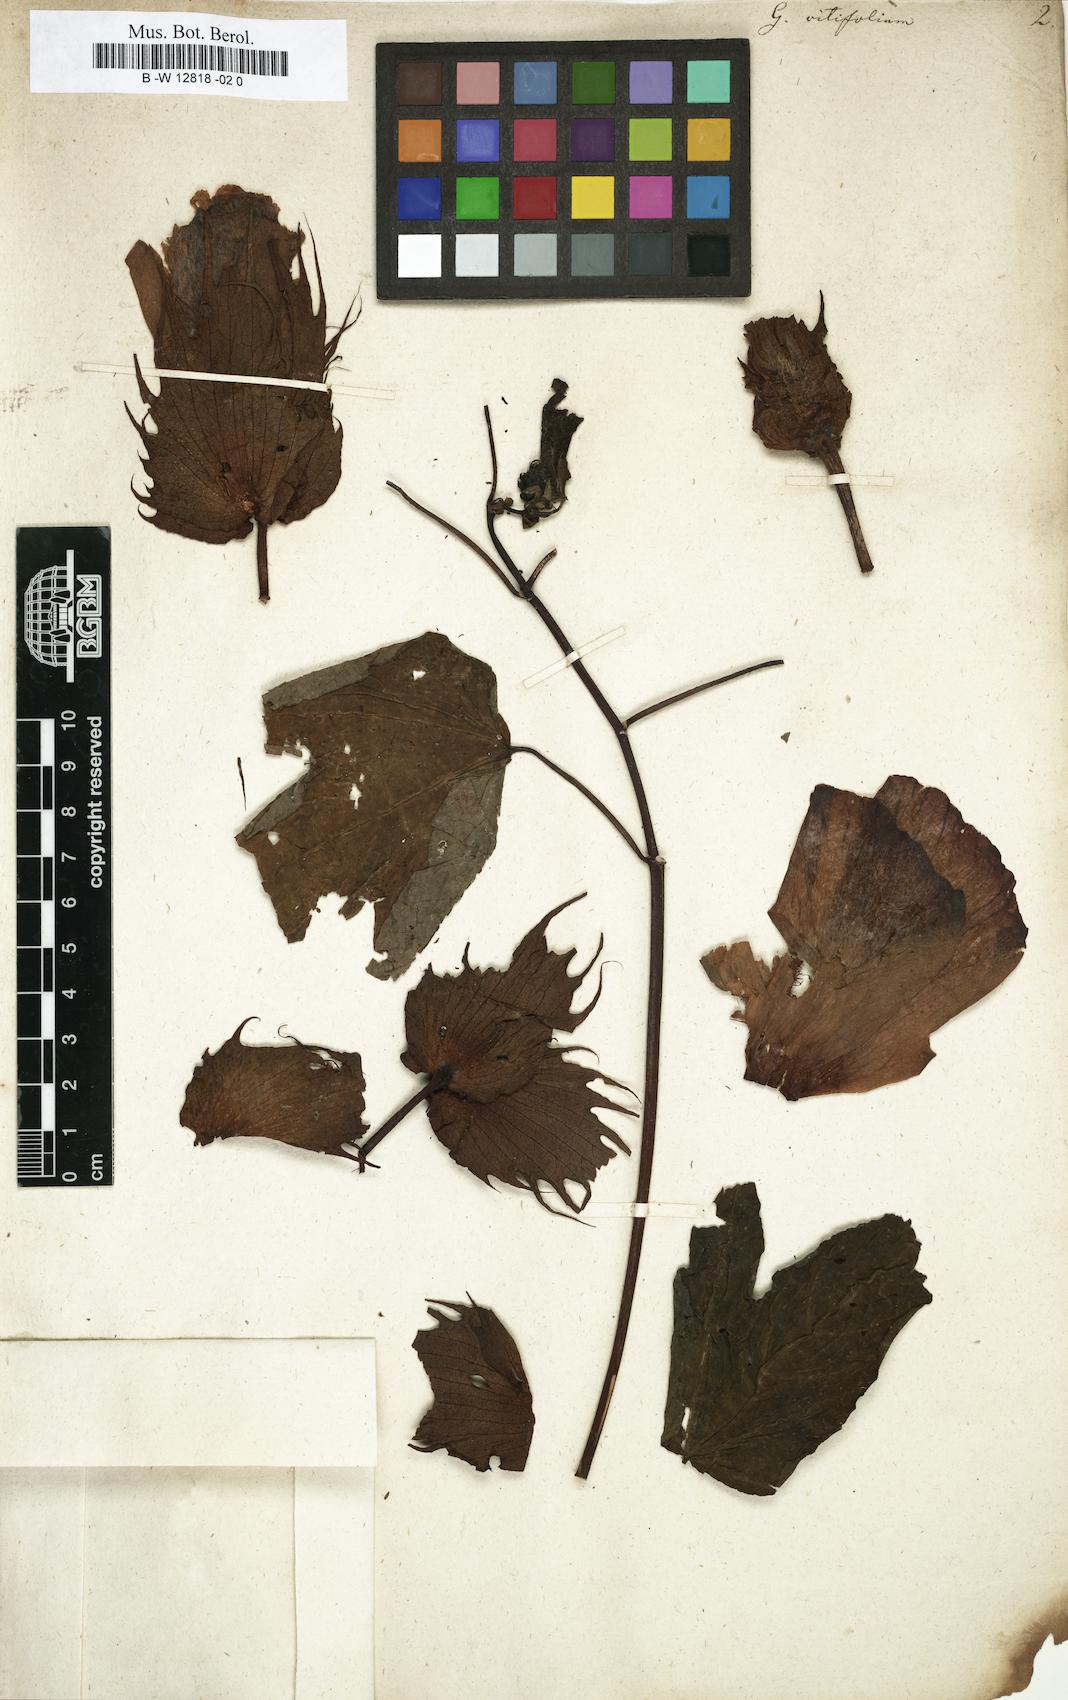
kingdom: Plantae
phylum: Tracheophyta
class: Magnoliopsida
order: Malvales
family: Malvaceae
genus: Gossypium
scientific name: Gossypium barbadense
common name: Creole cotton
